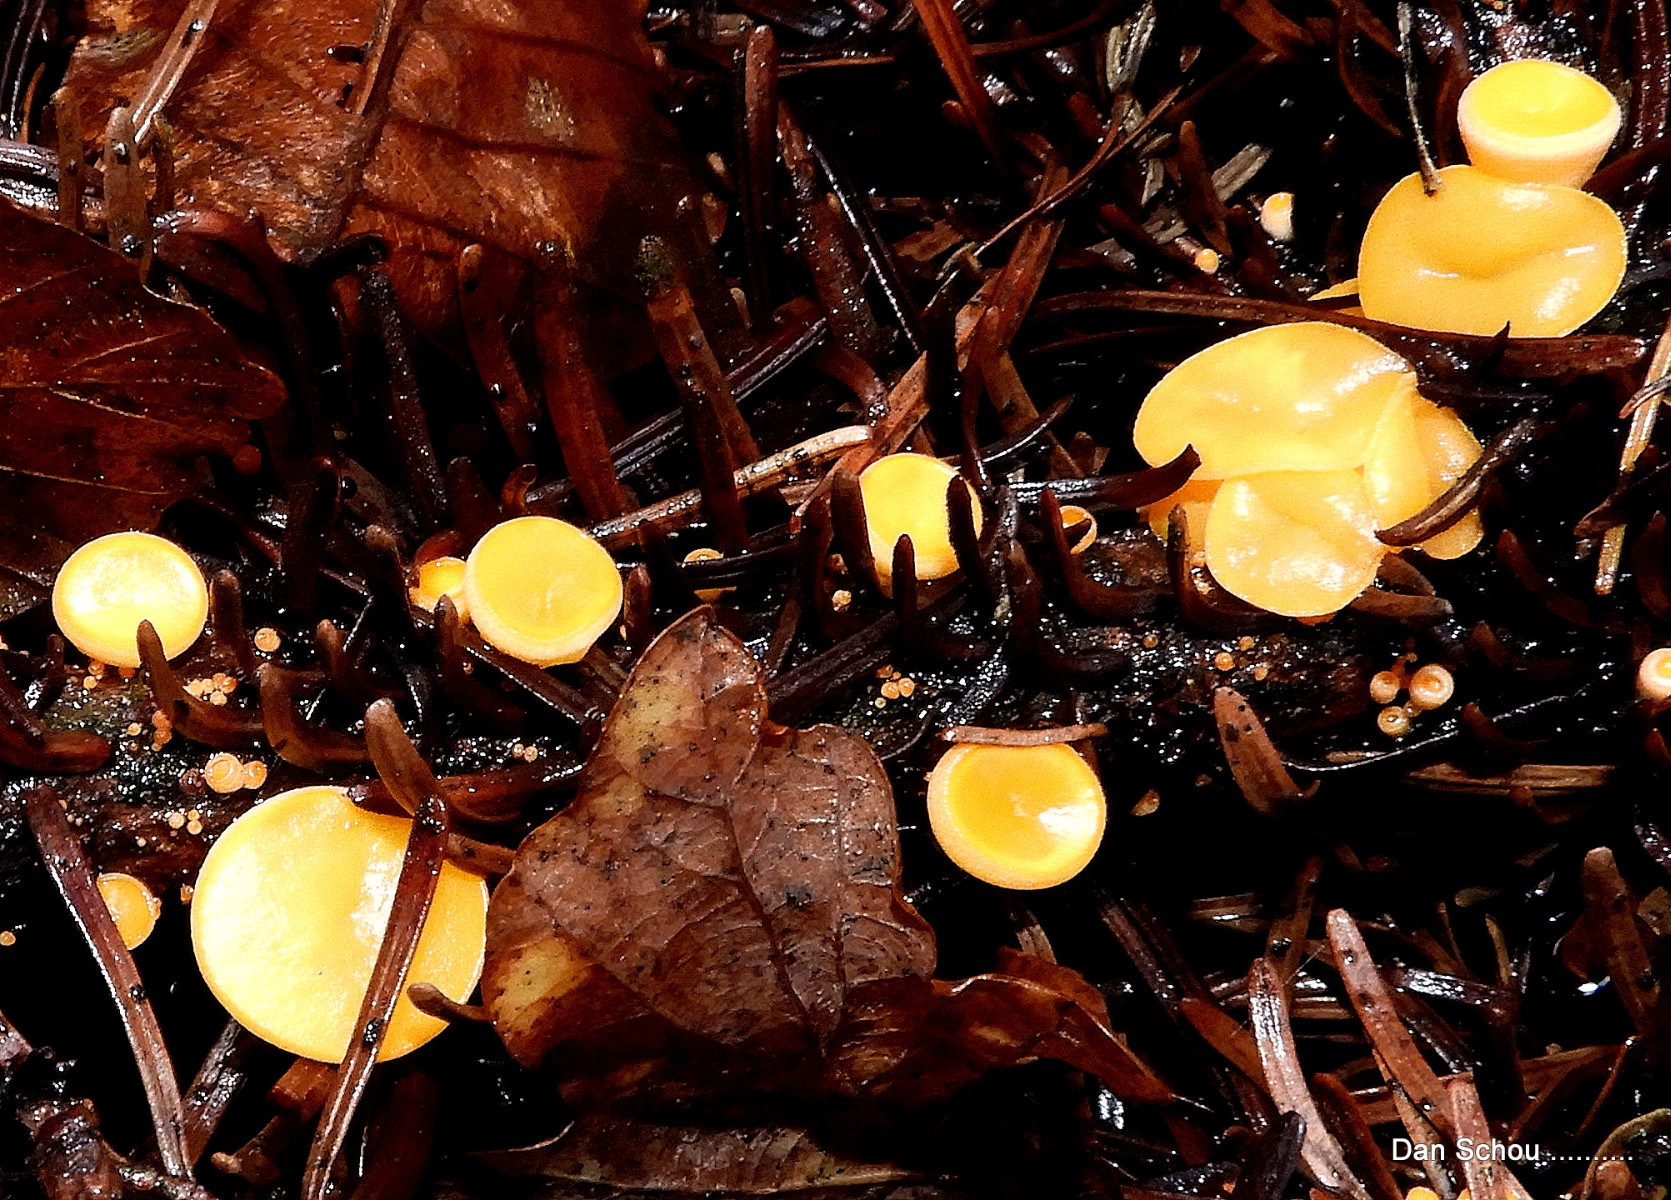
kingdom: Fungi
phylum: Ascomycota
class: Pezizomycetes
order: Pezizales
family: Sarcoscyphaceae
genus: Pithya
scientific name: Pithya vulgaris
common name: stor dukatbæger
